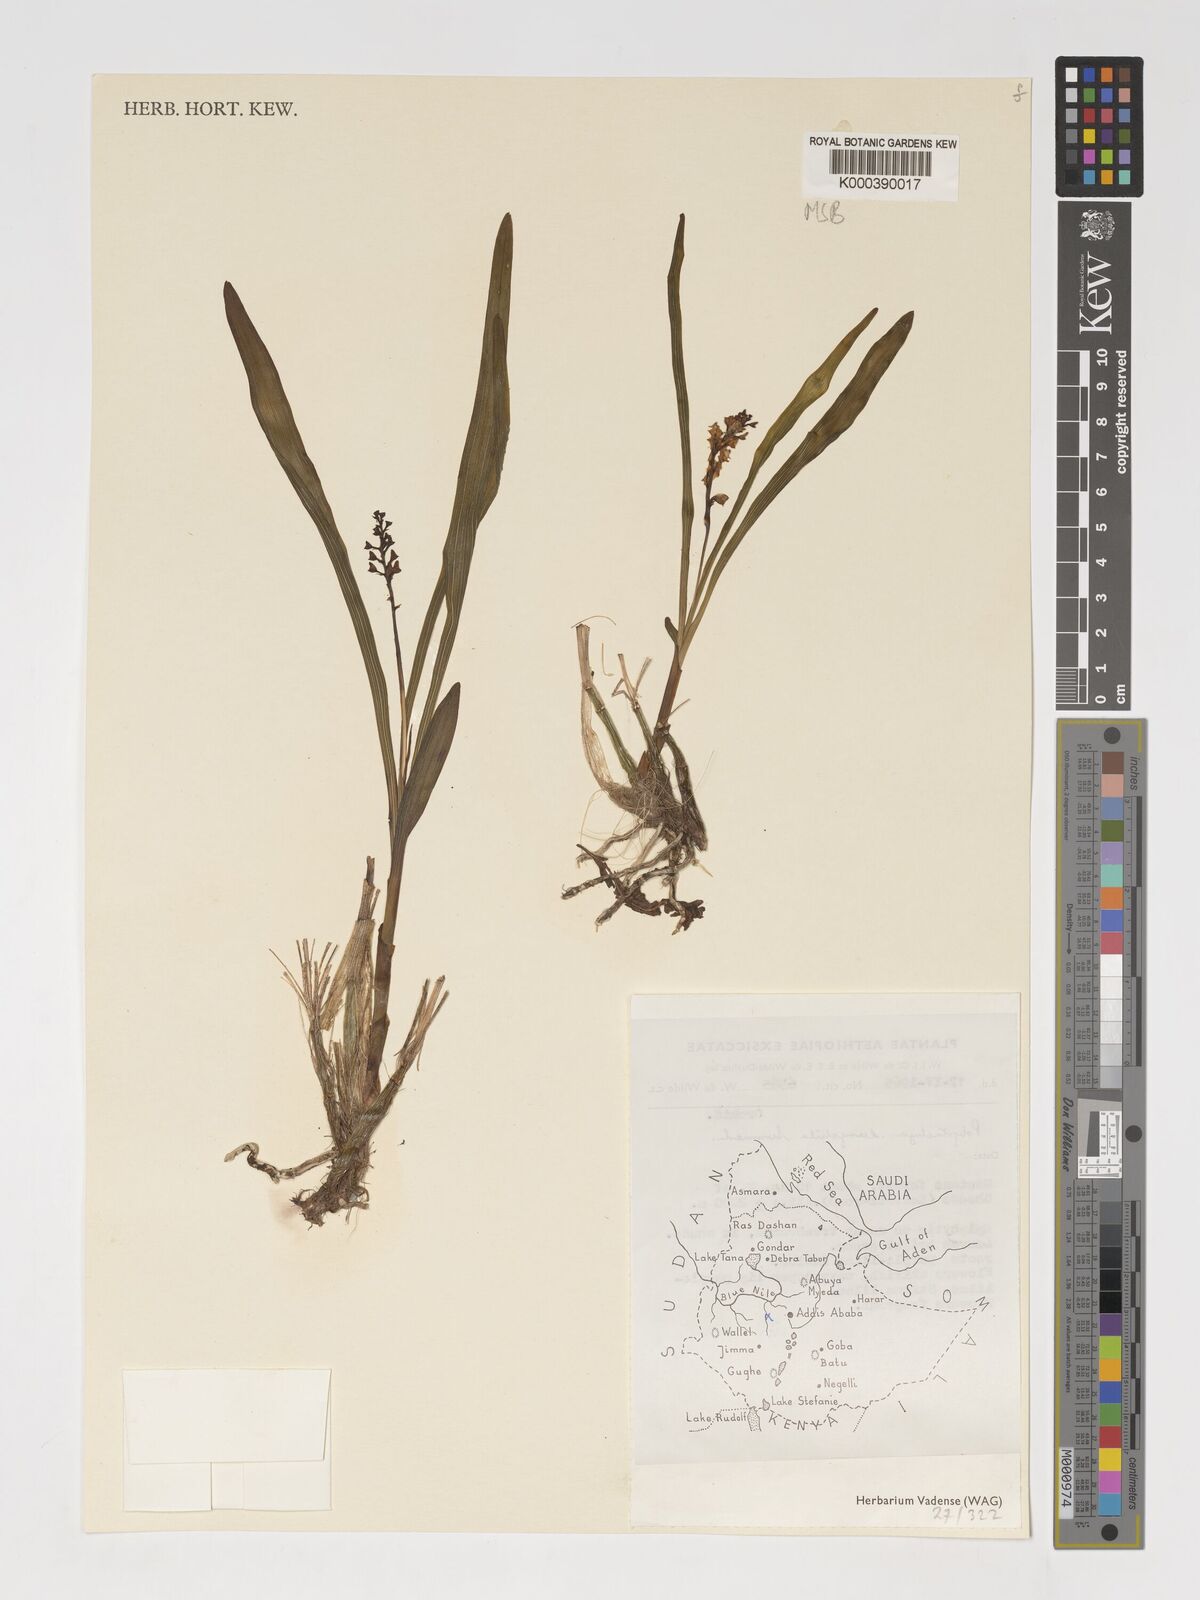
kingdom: Plantae
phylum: Tracheophyta
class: Liliopsida
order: Asparagales
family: Orchidaceae
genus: Polystachya
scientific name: Polystachya eurychila
